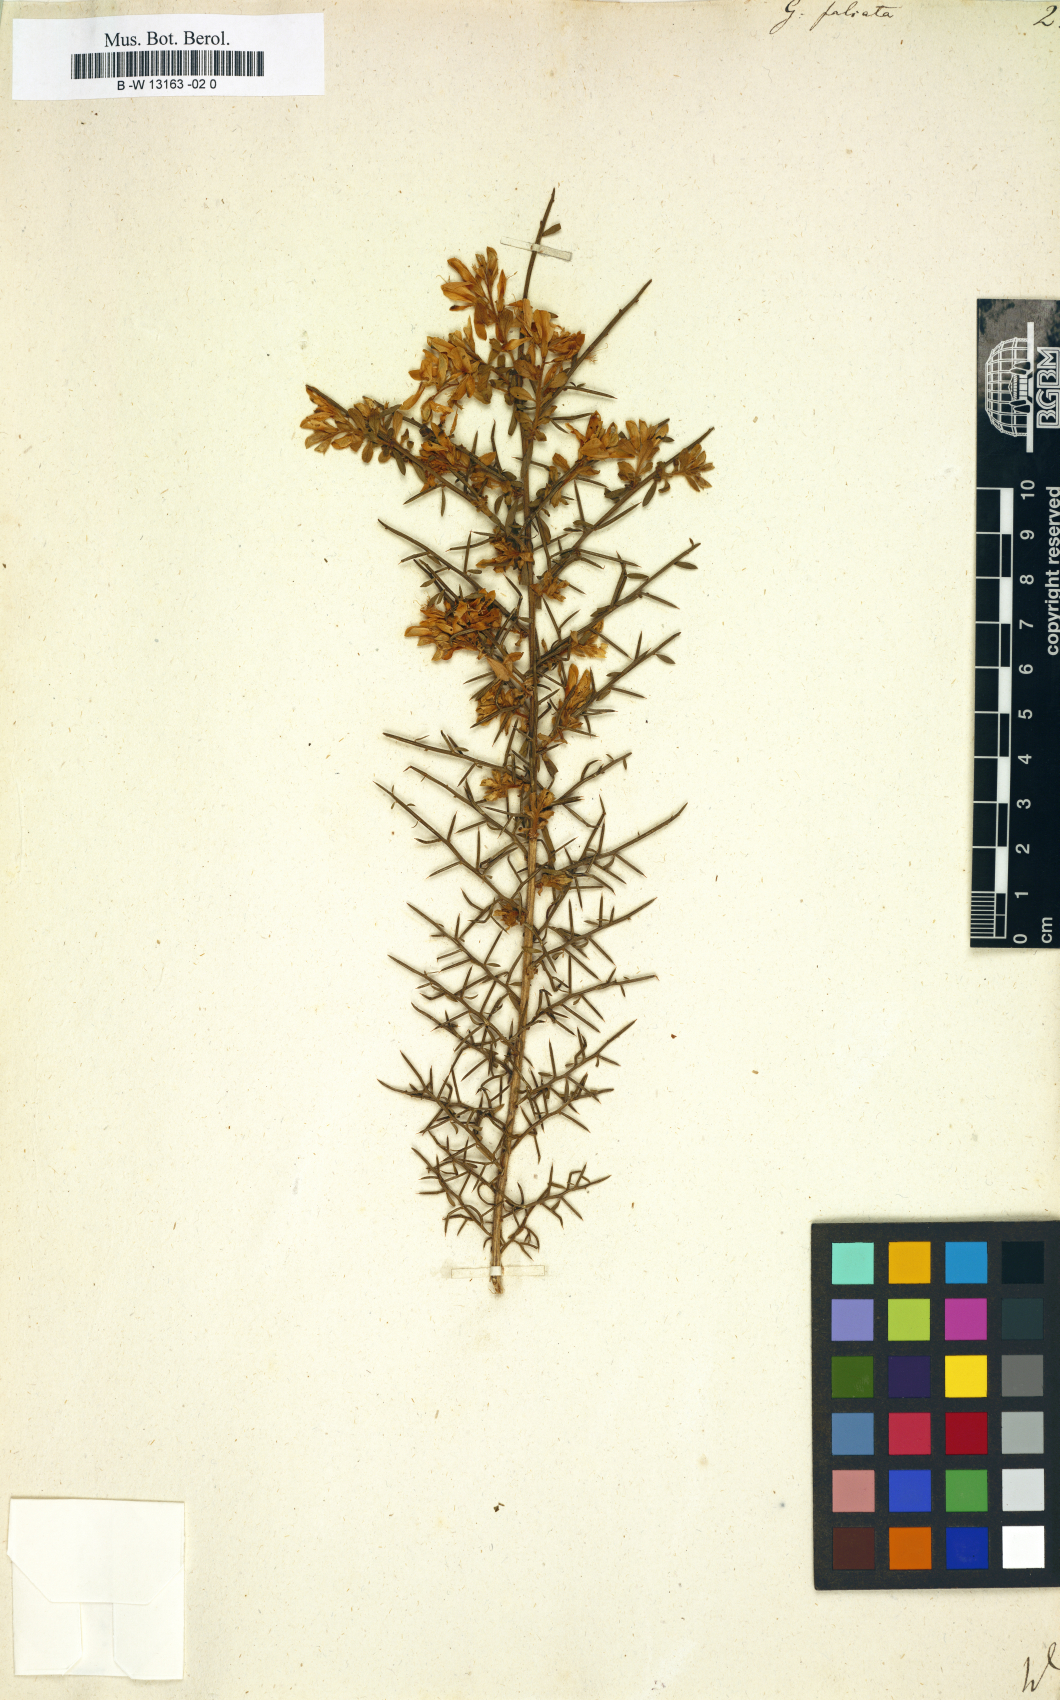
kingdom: Plantae
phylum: Tracheophyta
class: Magnoliopsida
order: Fabales
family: Fabaceae
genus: Genista
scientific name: Genista falcata
